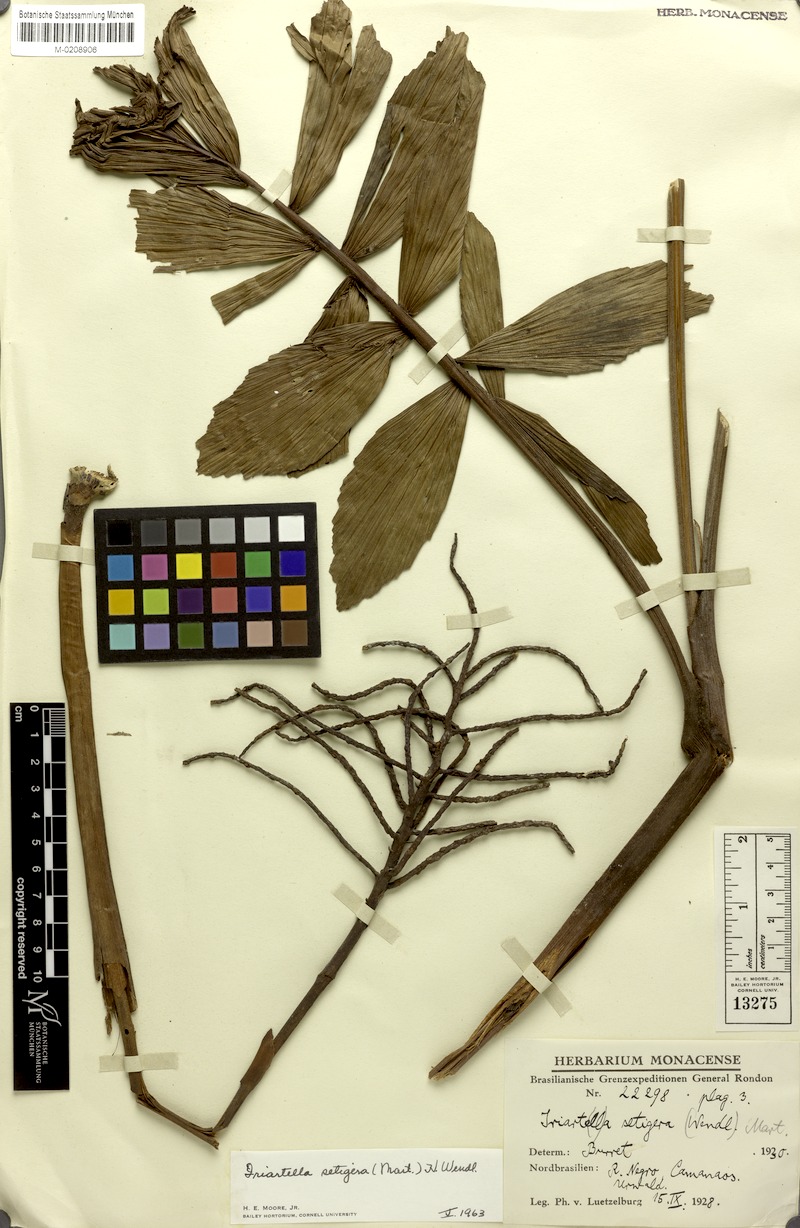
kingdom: Plantae
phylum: Tracheophyta
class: Liliopsida
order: Arecales
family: Arecaceae
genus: Iriartella
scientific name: Iriartella setigera
